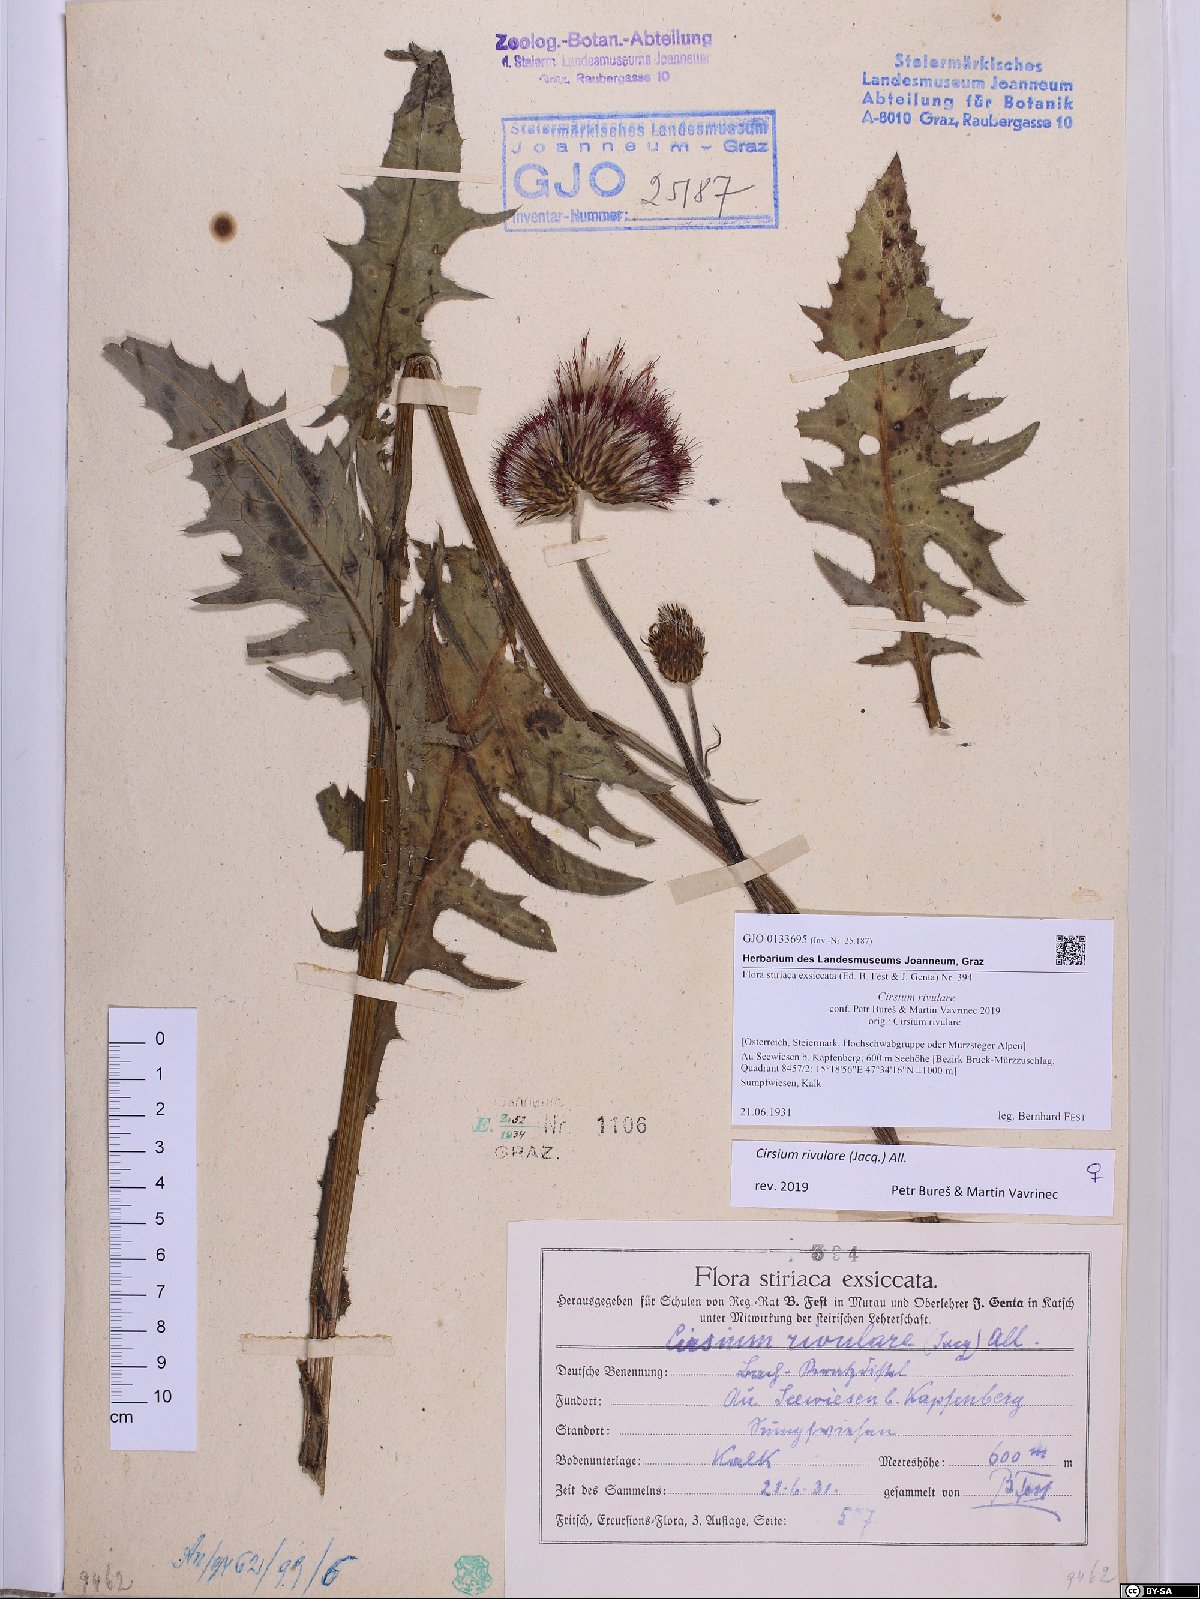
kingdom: Plantae
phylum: Tracheophyta
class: Magnoliopsida
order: Asterales
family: Asteraceae
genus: Cirsium
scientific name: Cirsium rivulare
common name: Brook thistle
